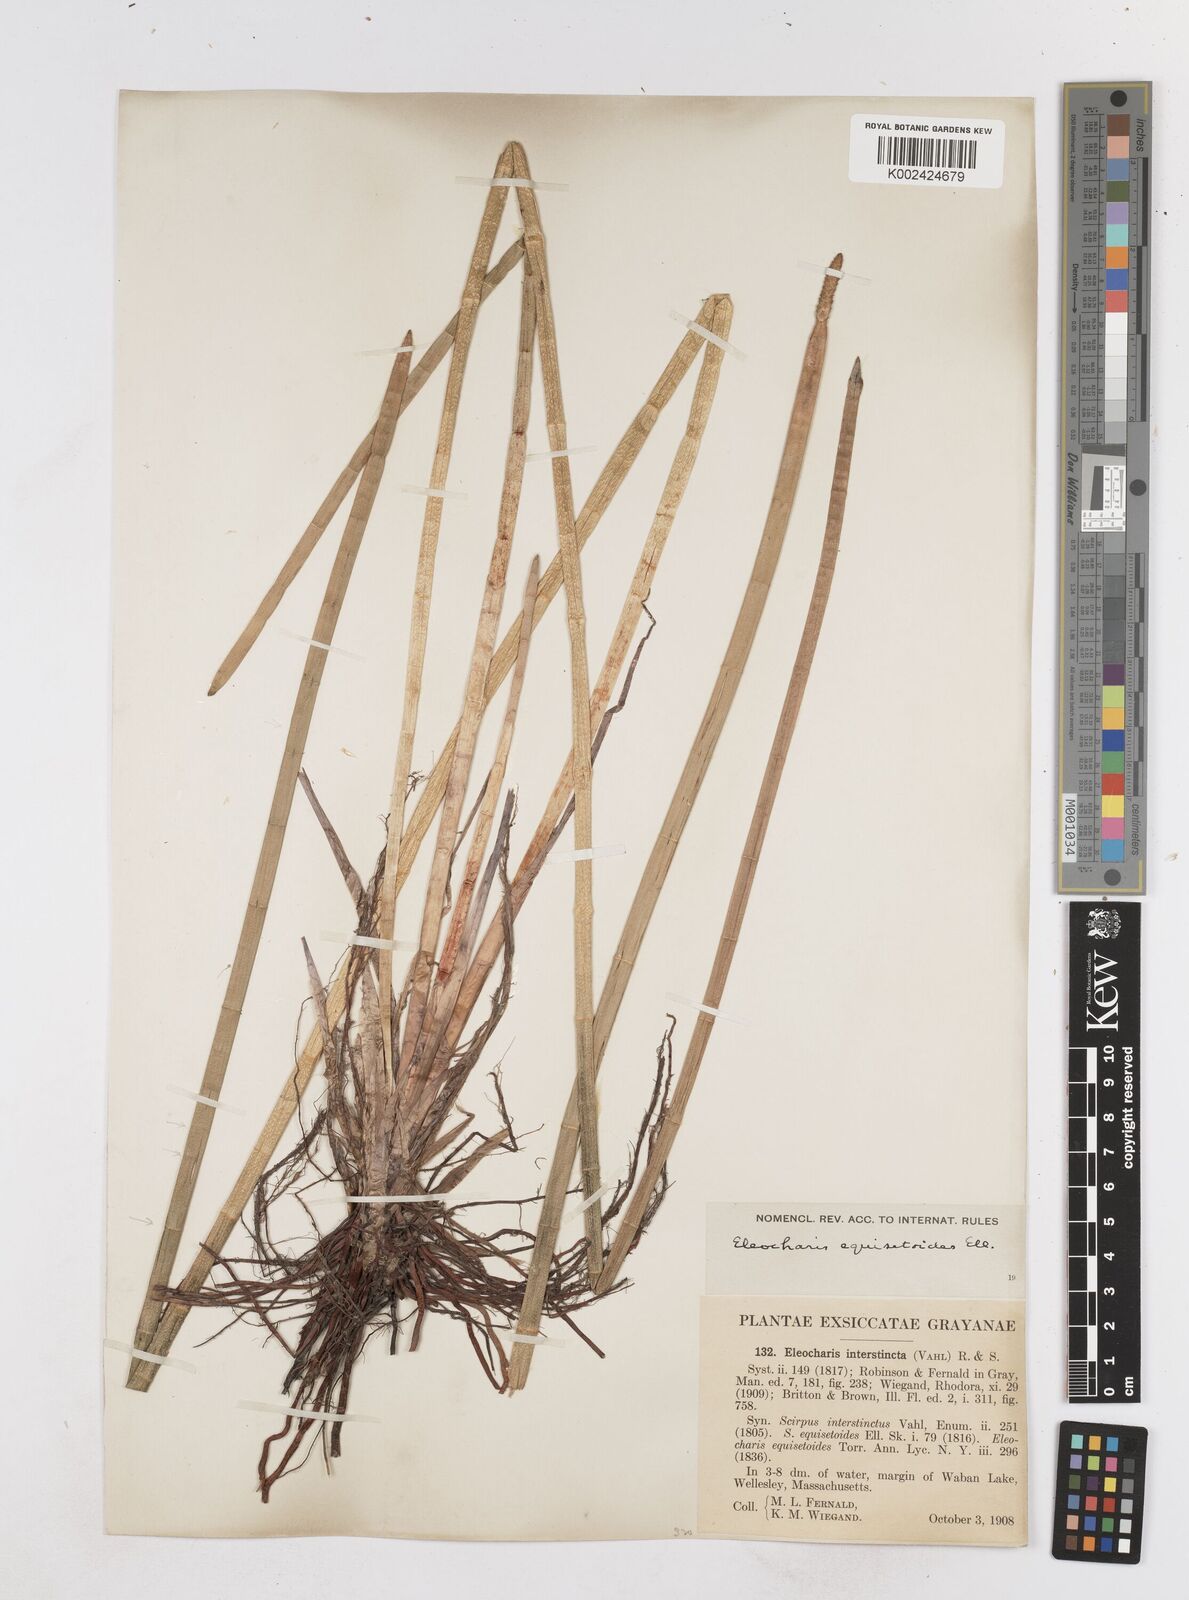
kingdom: Plantae
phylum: Tracheophyta
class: Liliopsida
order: Poales
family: Cyperaceae
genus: Eleocharis
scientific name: Eleocharis equisetoides
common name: Horsetail spike-rush
